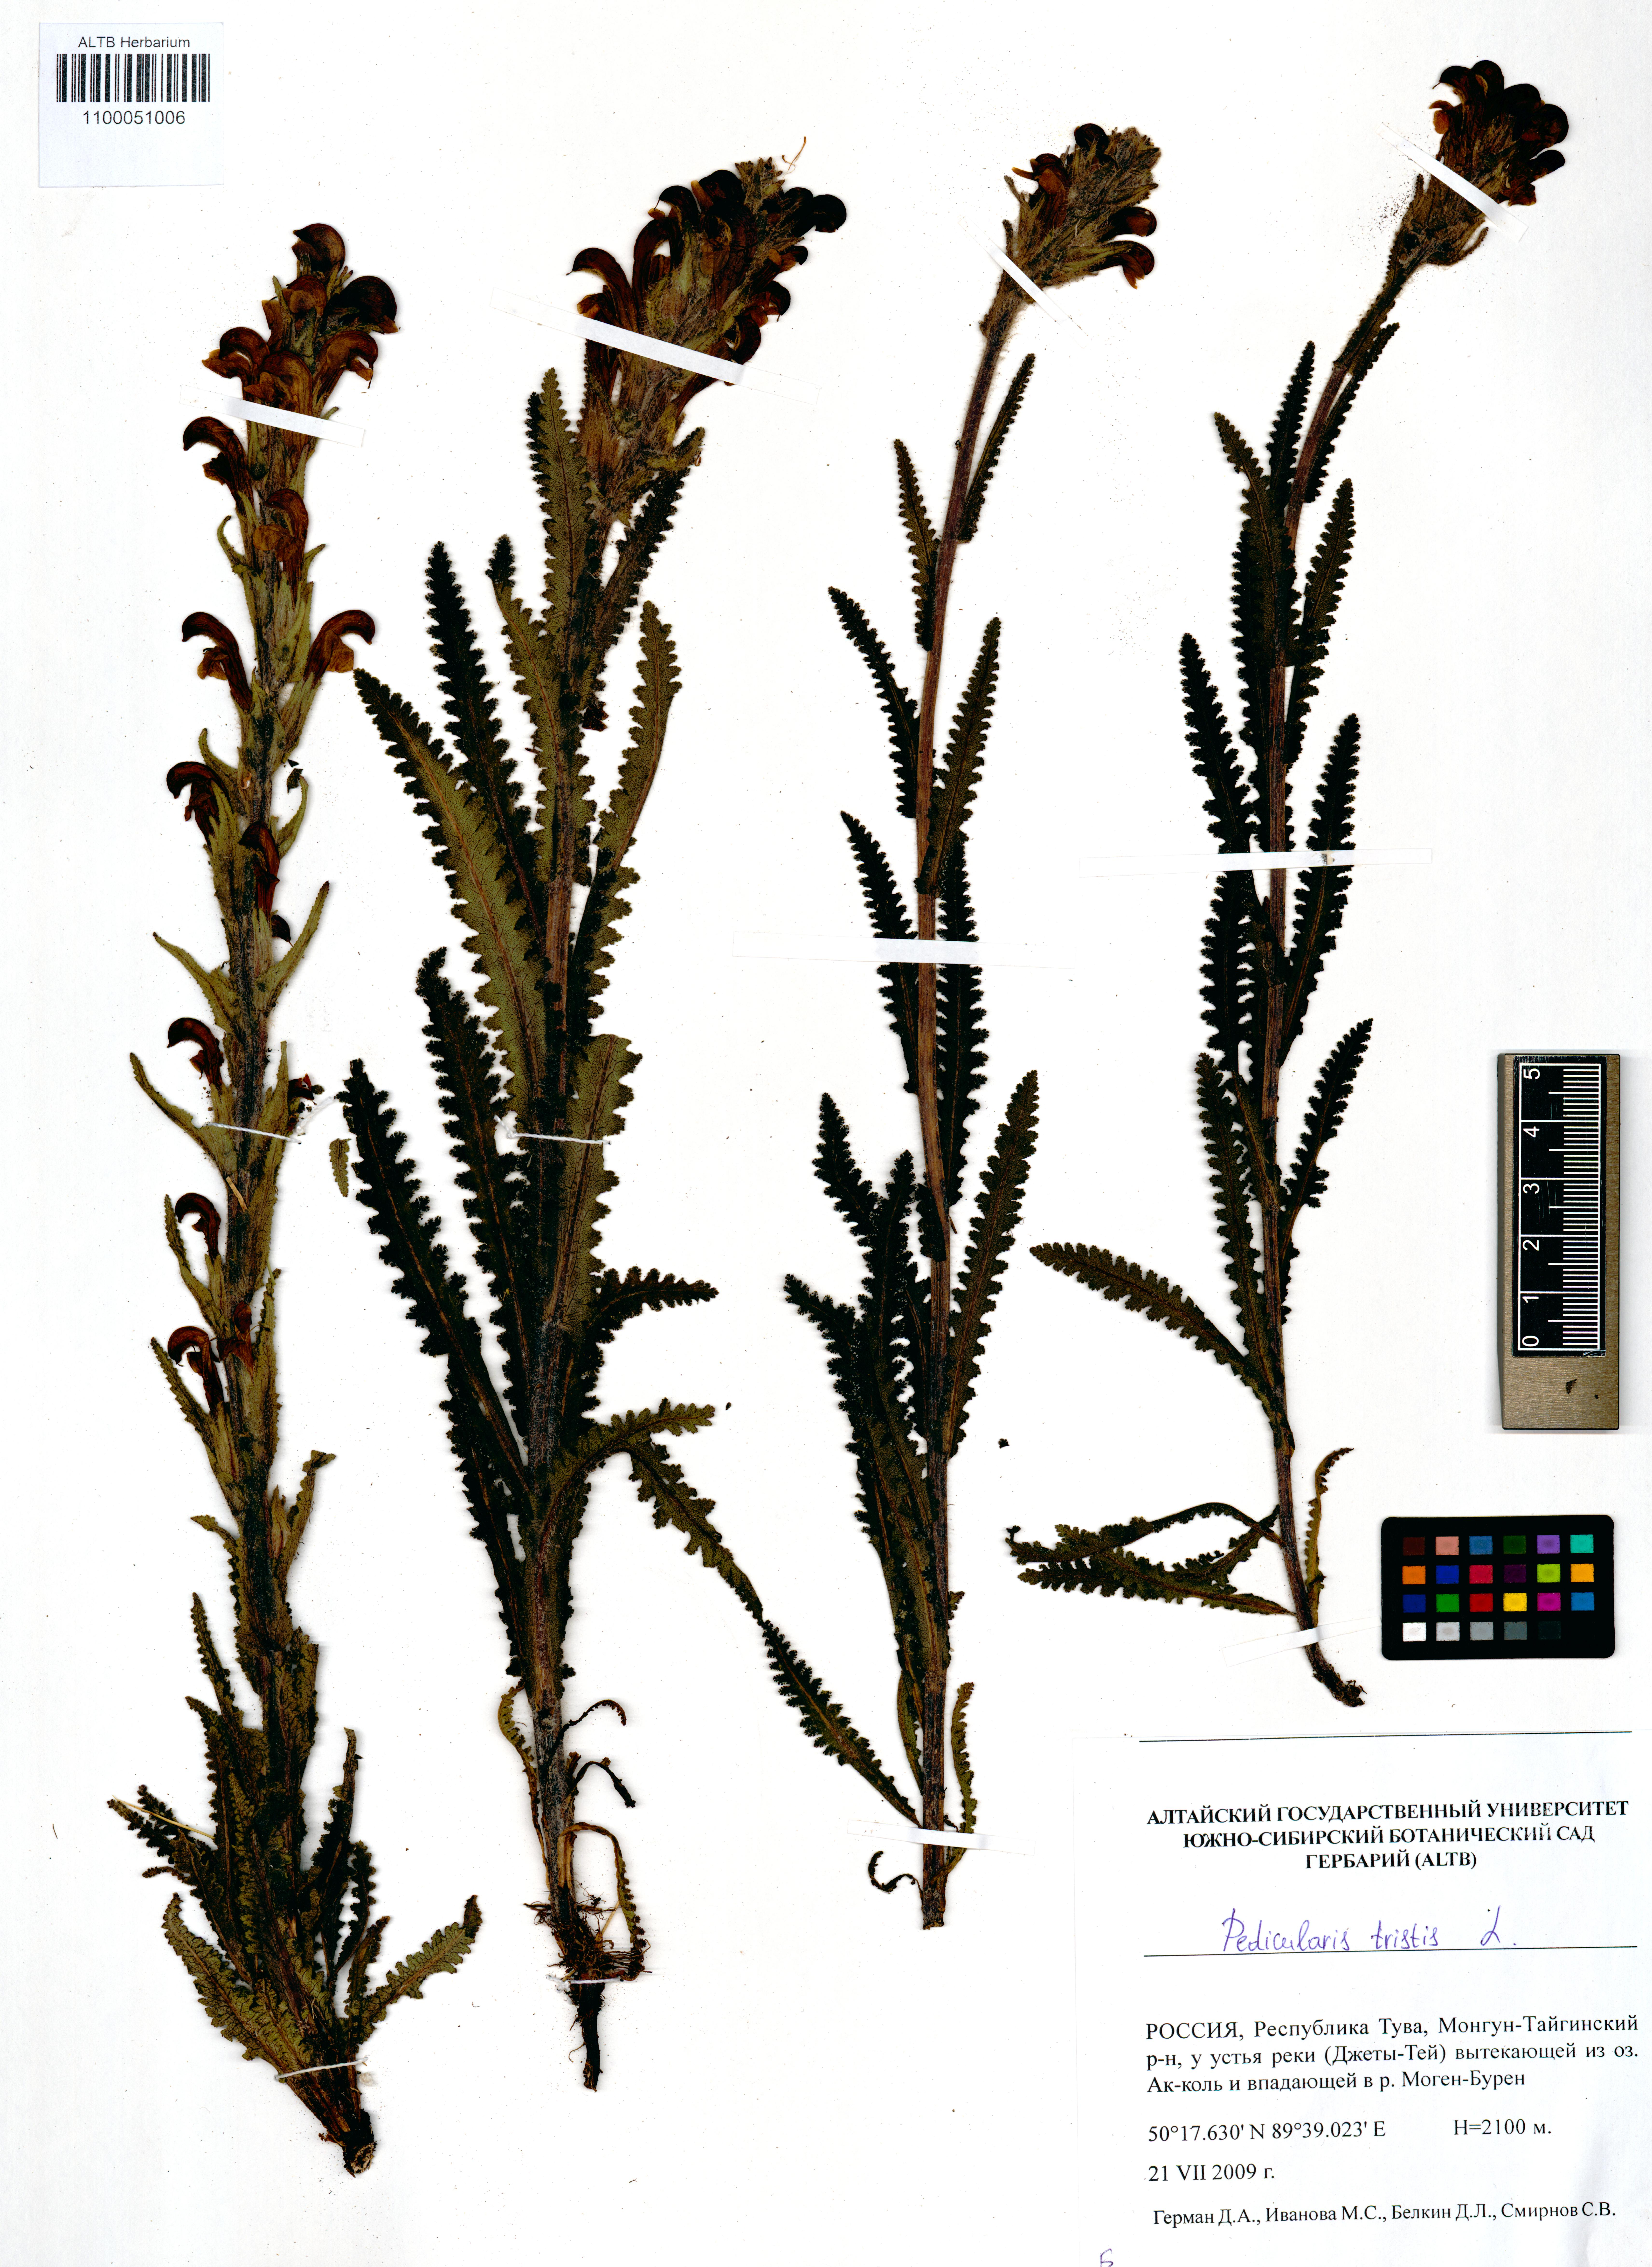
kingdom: Plantae
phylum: Tracheophyta
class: Magnoliopsida
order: Lamiales
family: Orobanchaceae
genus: Pedicularis
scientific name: Pedicularis tristis
